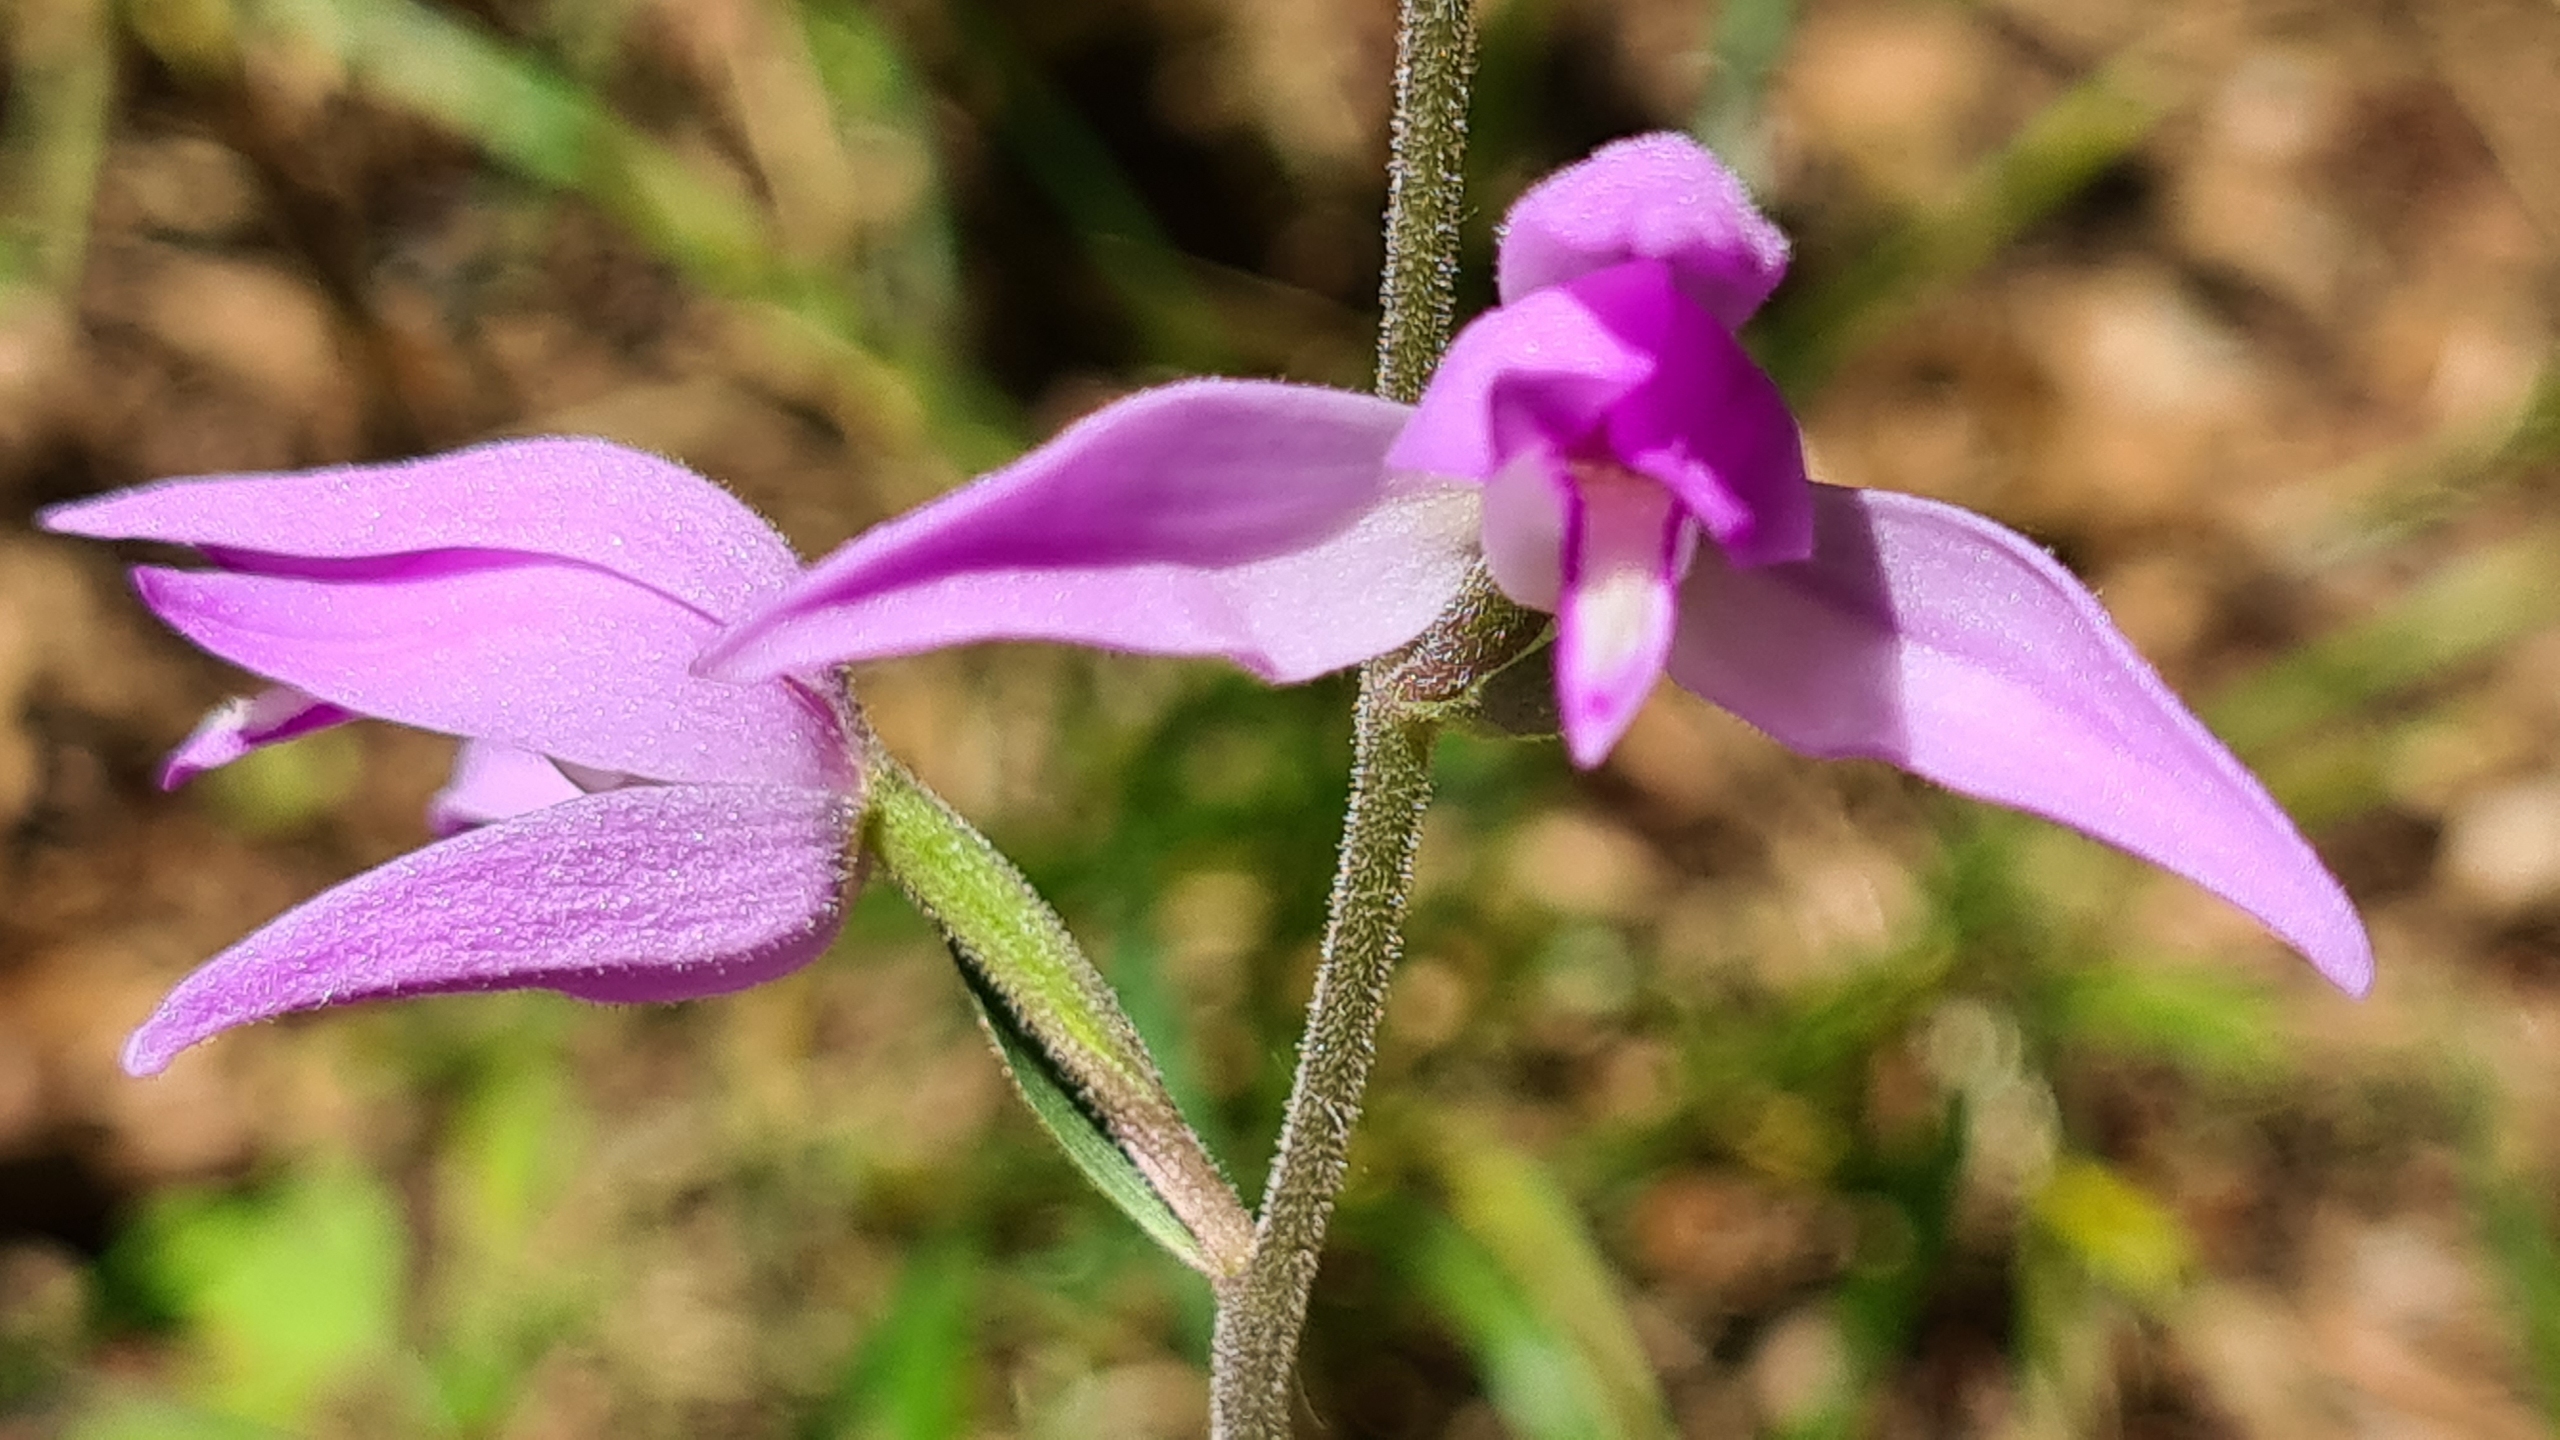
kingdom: Plantae
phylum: Tracheophyta
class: Liliopsida
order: Asparagales
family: Orchidaceae
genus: Cephalanthera
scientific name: Cephalanthera rubra
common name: Rød skovlilje
